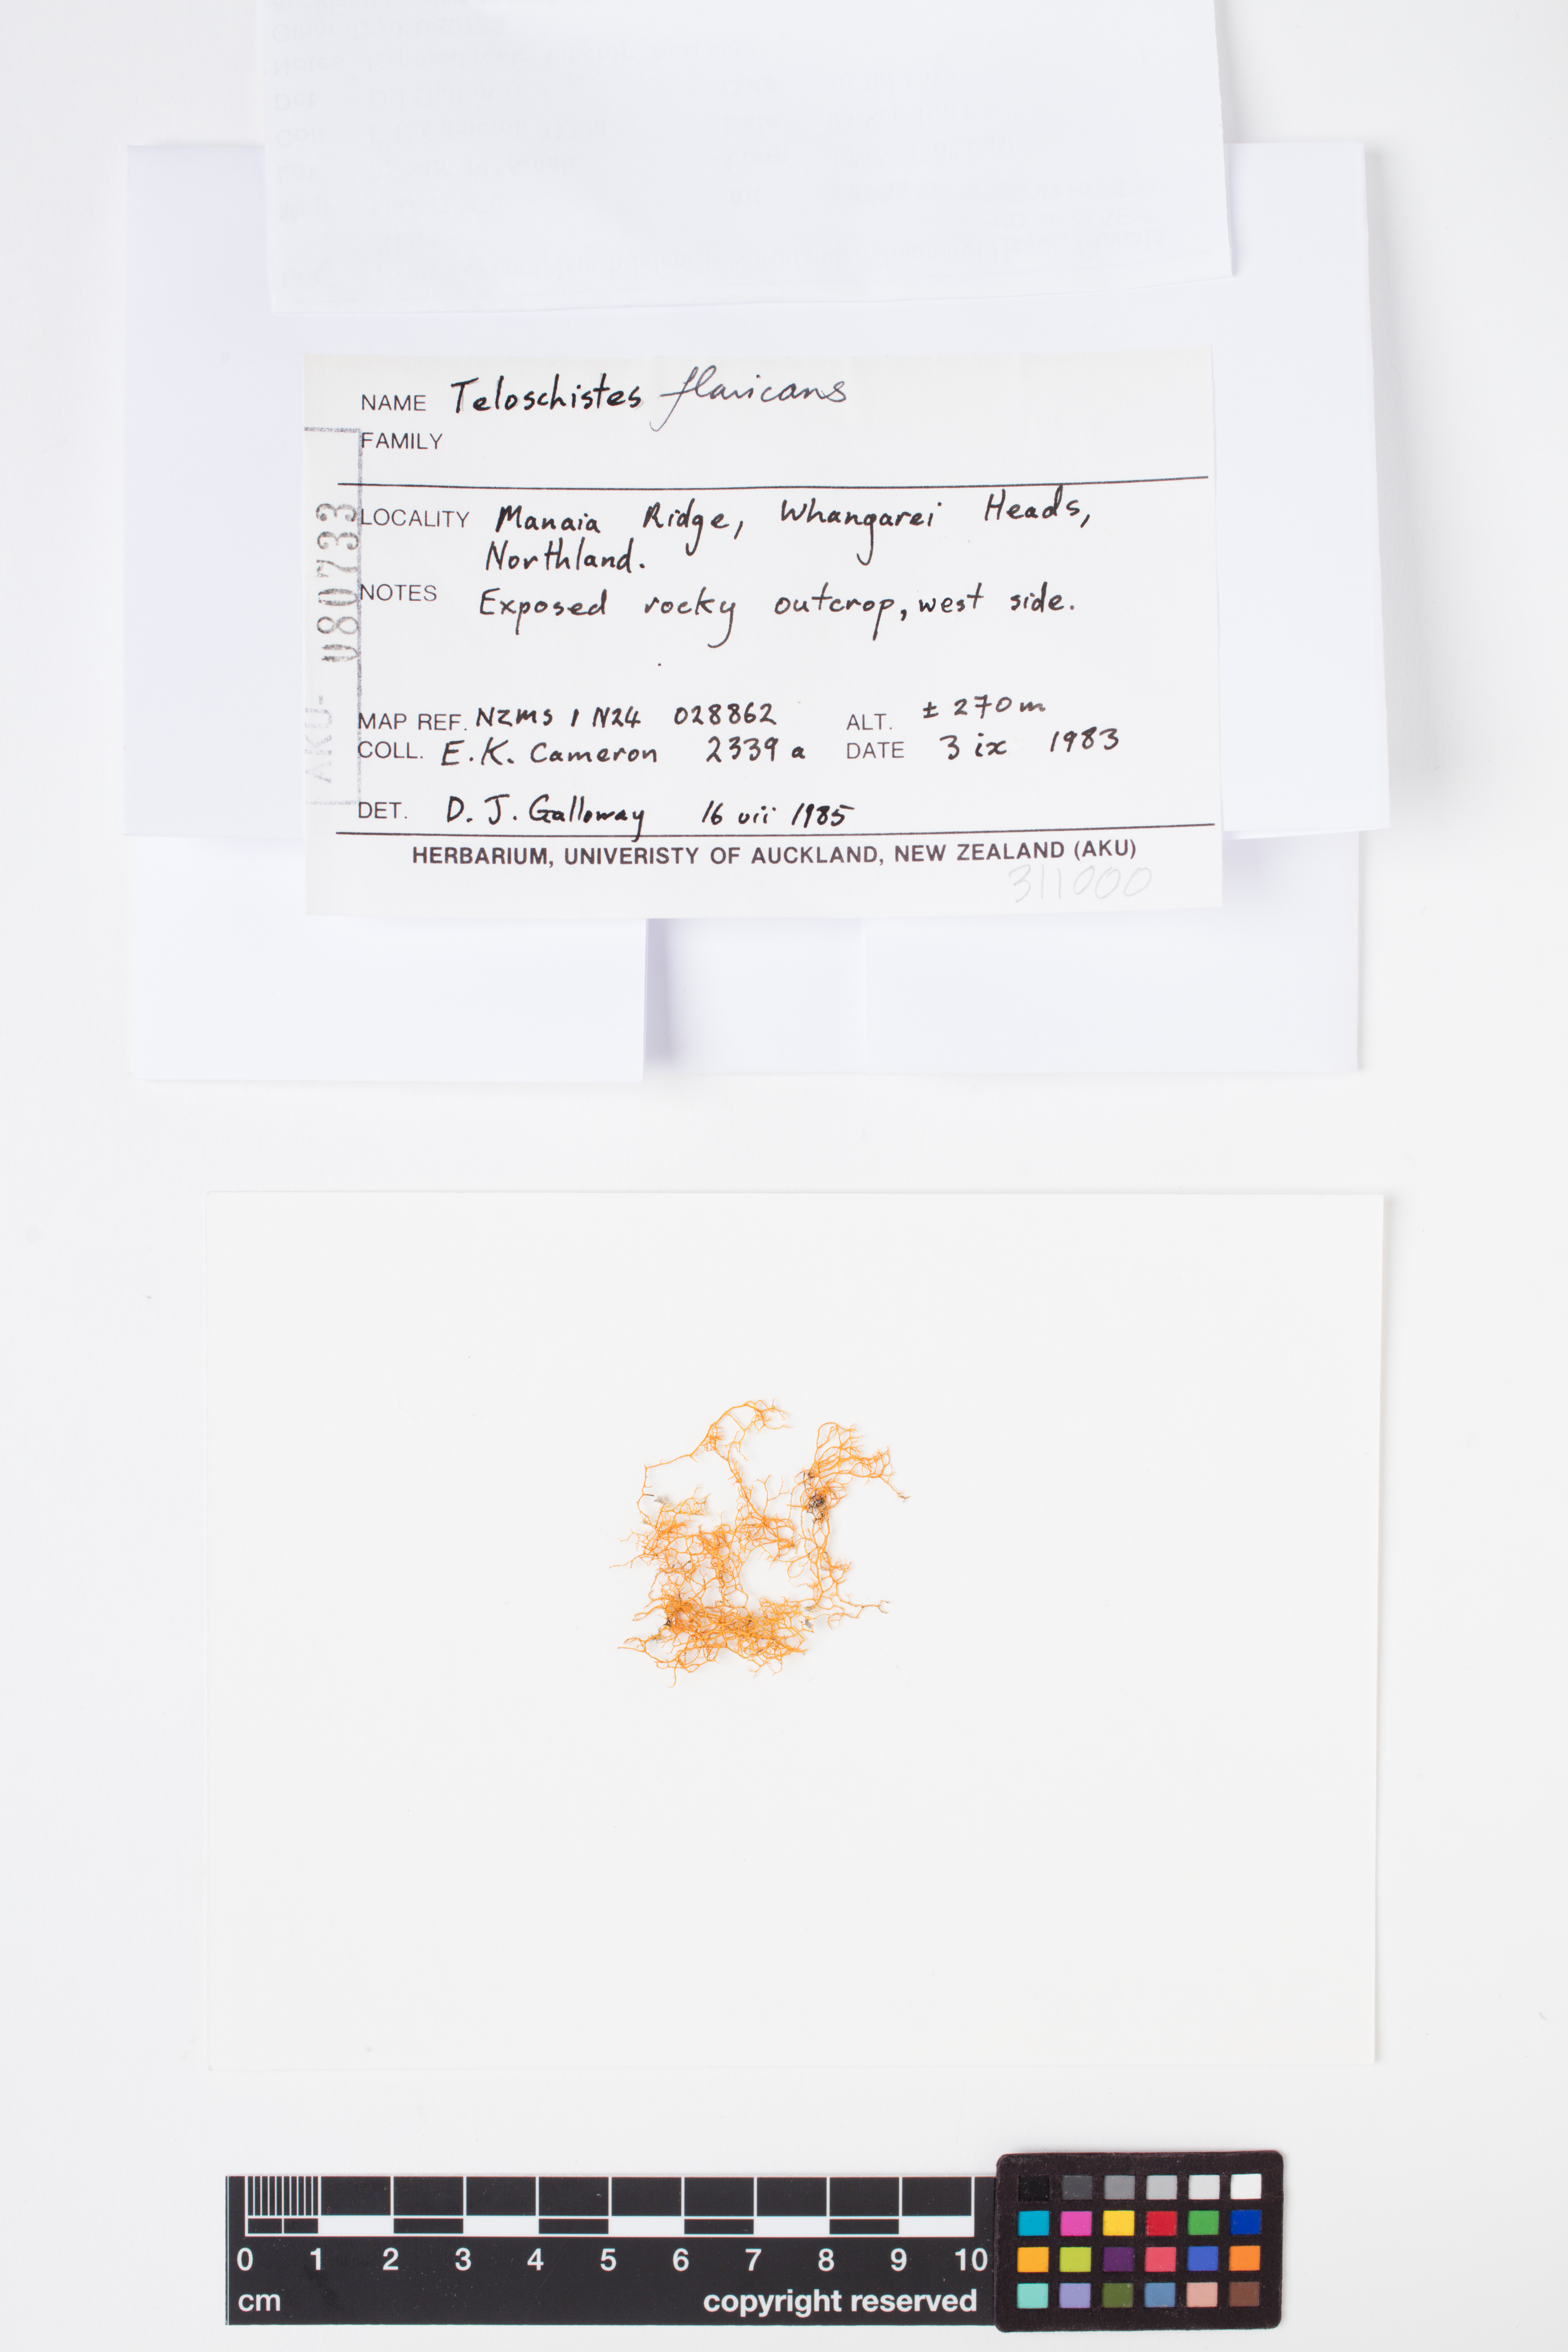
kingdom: Fungi
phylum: Ascomycota
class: Lecanoromycetes
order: Teloschistales
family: Teloschistaceae
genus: Teloschistes
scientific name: Teloschistes flavicans
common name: Golden hair-lichen
